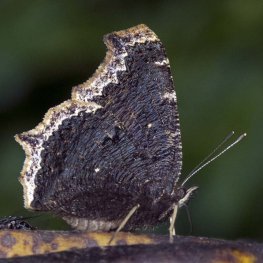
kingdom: Animalia
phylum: Arthropoda
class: Insecta
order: Lepidoptera
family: Nymphalidae
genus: Nymphalis
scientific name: Nymphalis antiopa
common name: Mourning Cloak
